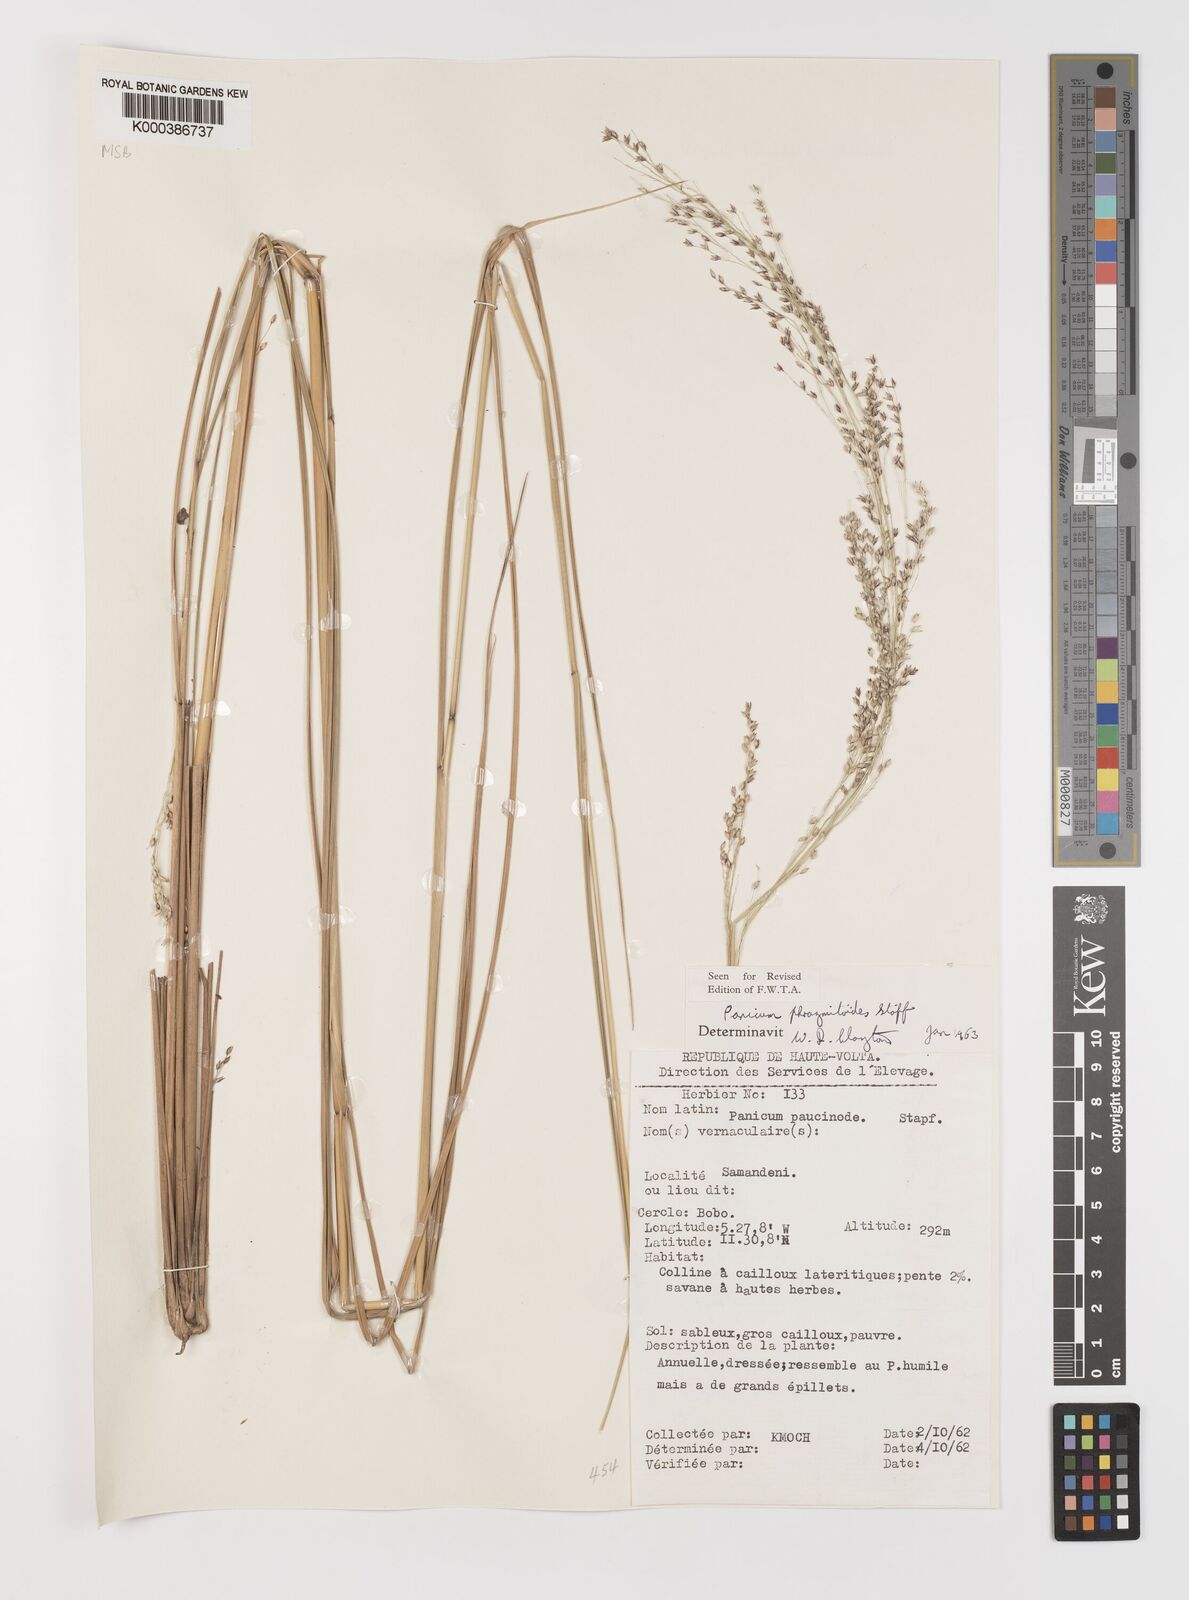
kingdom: Plantae
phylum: Tracheophyta
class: Liliopsida
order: Poales
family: Poaceae
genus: Panicum
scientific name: Panicum phragmitoides
